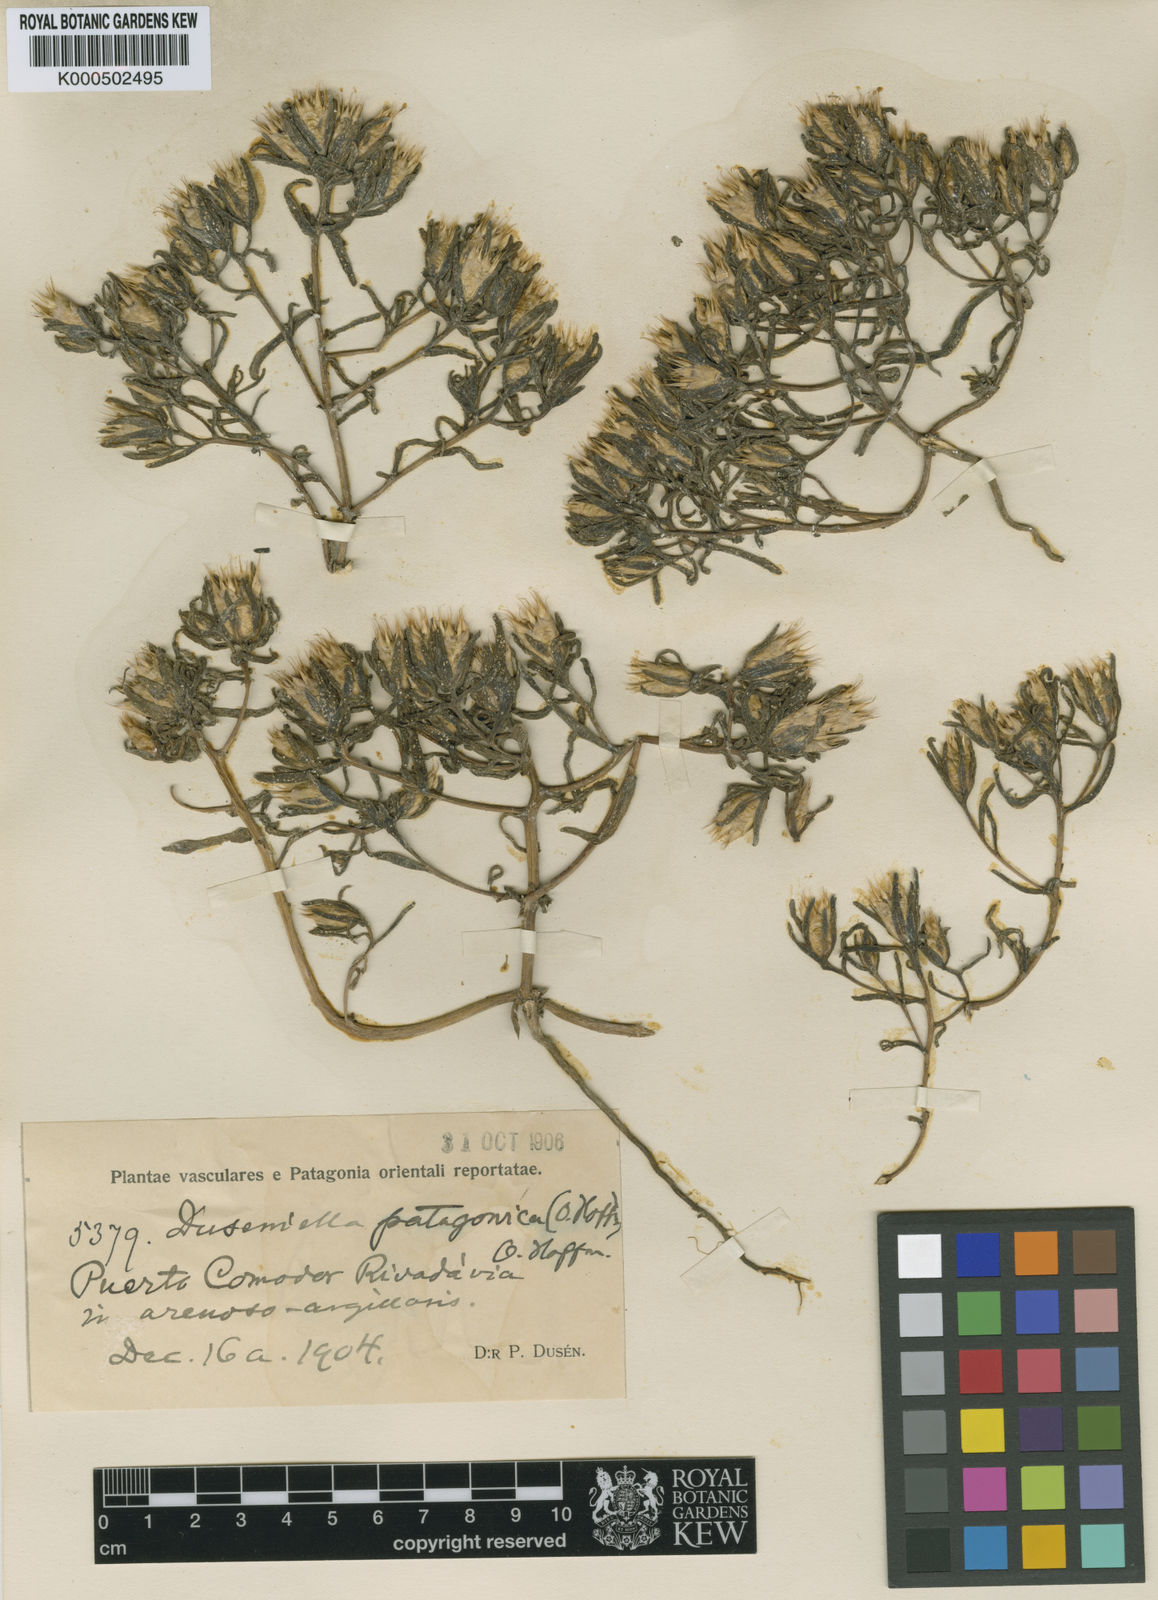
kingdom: Plantae
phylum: Tracheophyta
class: Magnoliopsida
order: Asterales
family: Asteraceae
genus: Duseniella
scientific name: Duseniella patagonica
